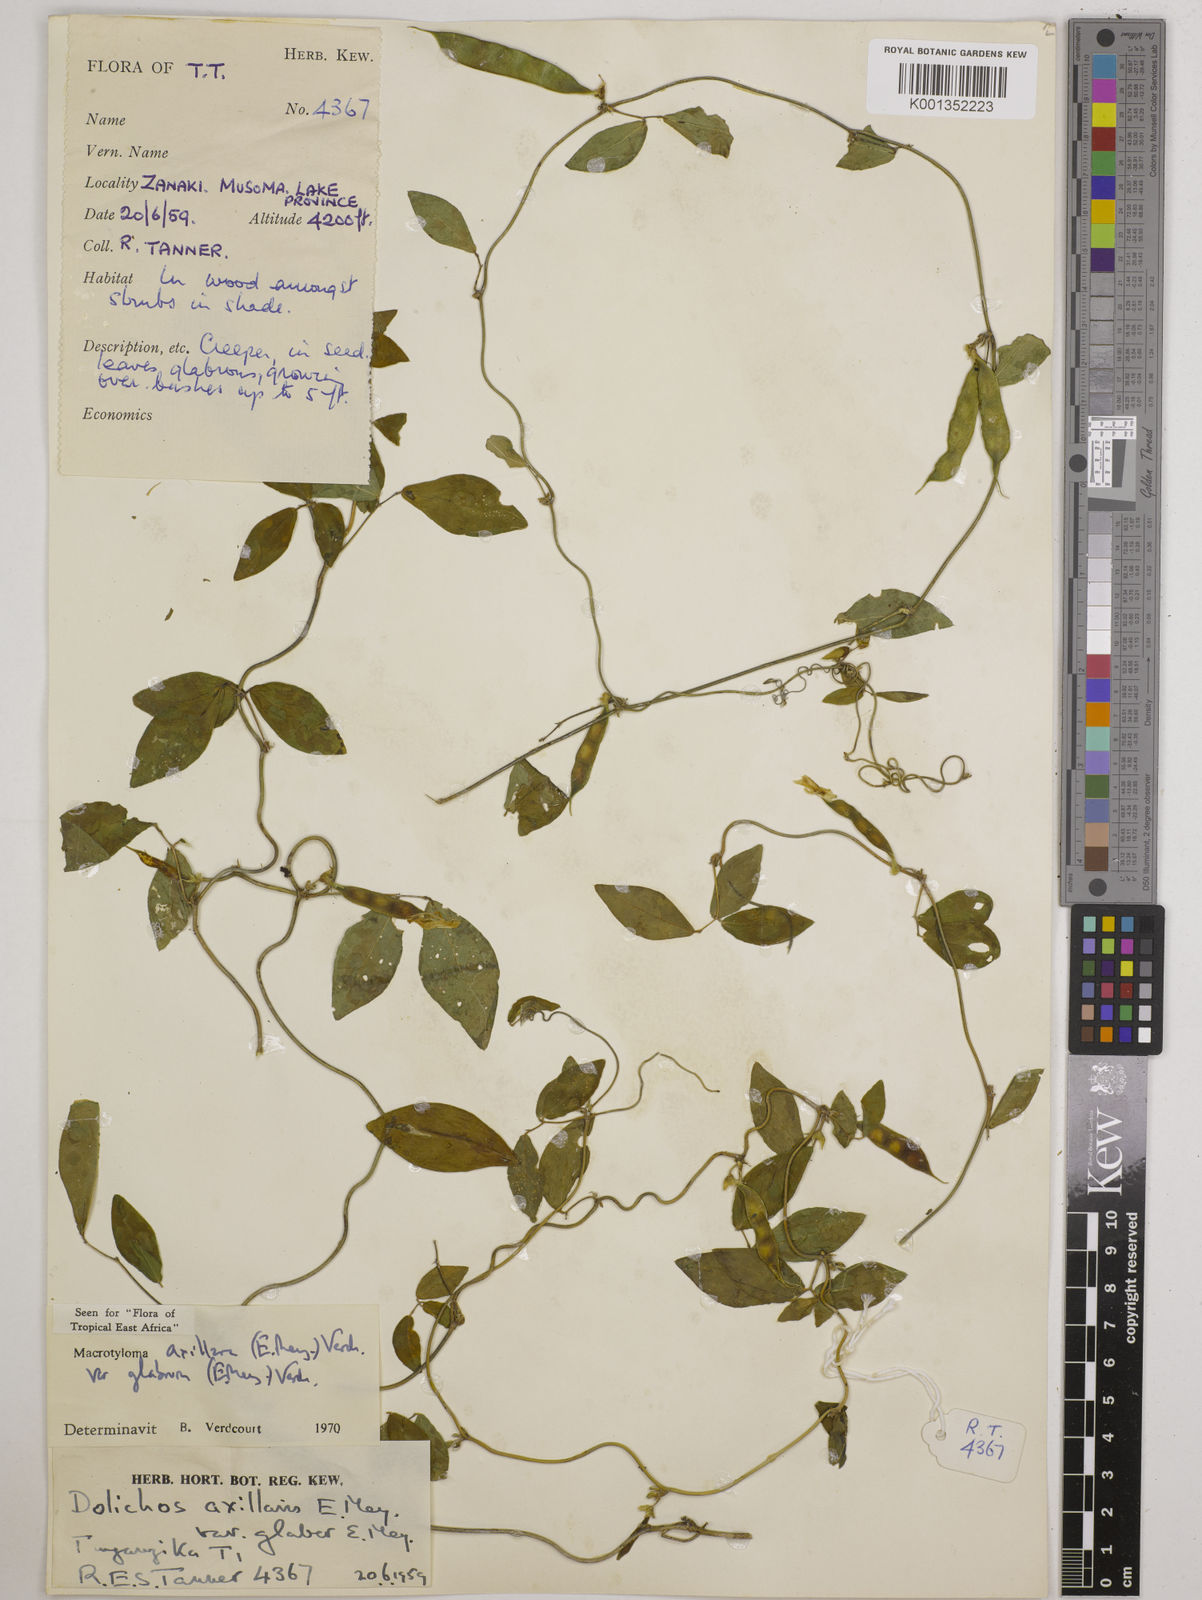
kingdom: Plantae
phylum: Tracheophyta
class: Magnoliopsida
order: Fabales
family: Fabaceae
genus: Macrotyloma
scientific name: Macrotyloma
